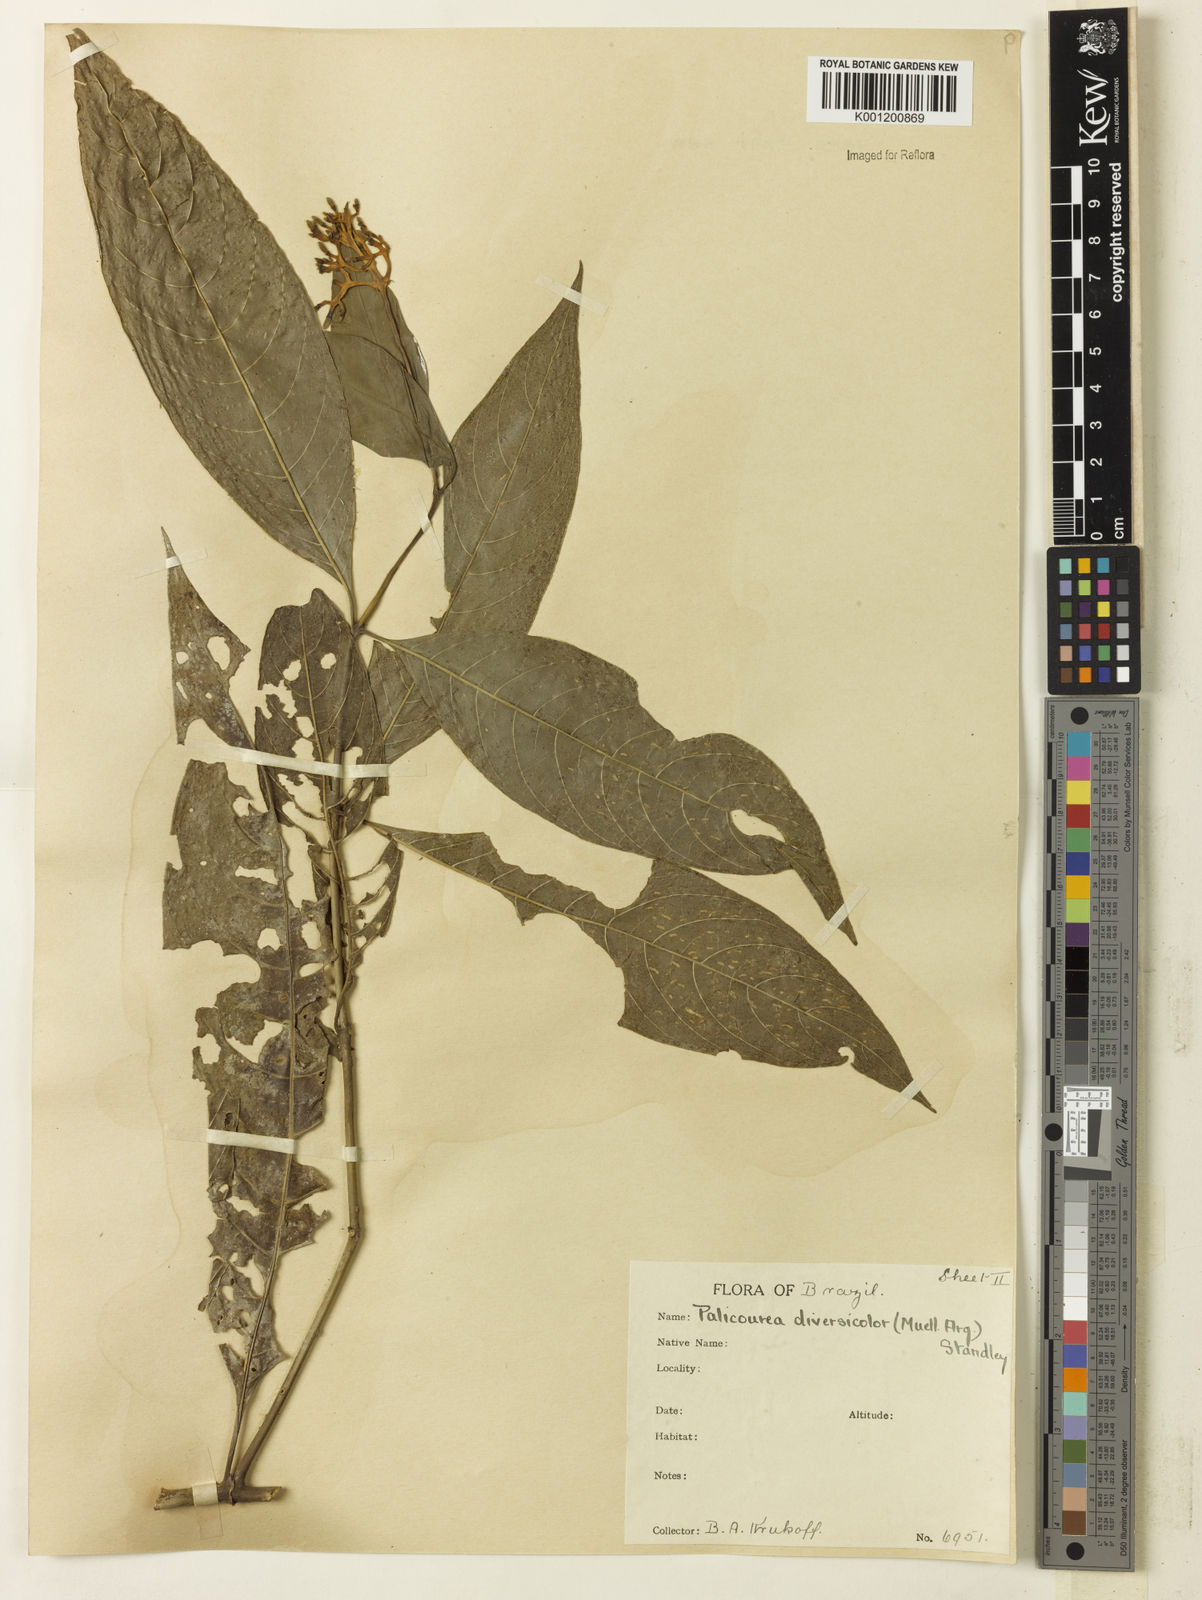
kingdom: Plantae
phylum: Tracheophyta
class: Magnoliopsida
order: Gentianales
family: Rubiaceae
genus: Palicourea
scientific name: Palicourea longiflora
